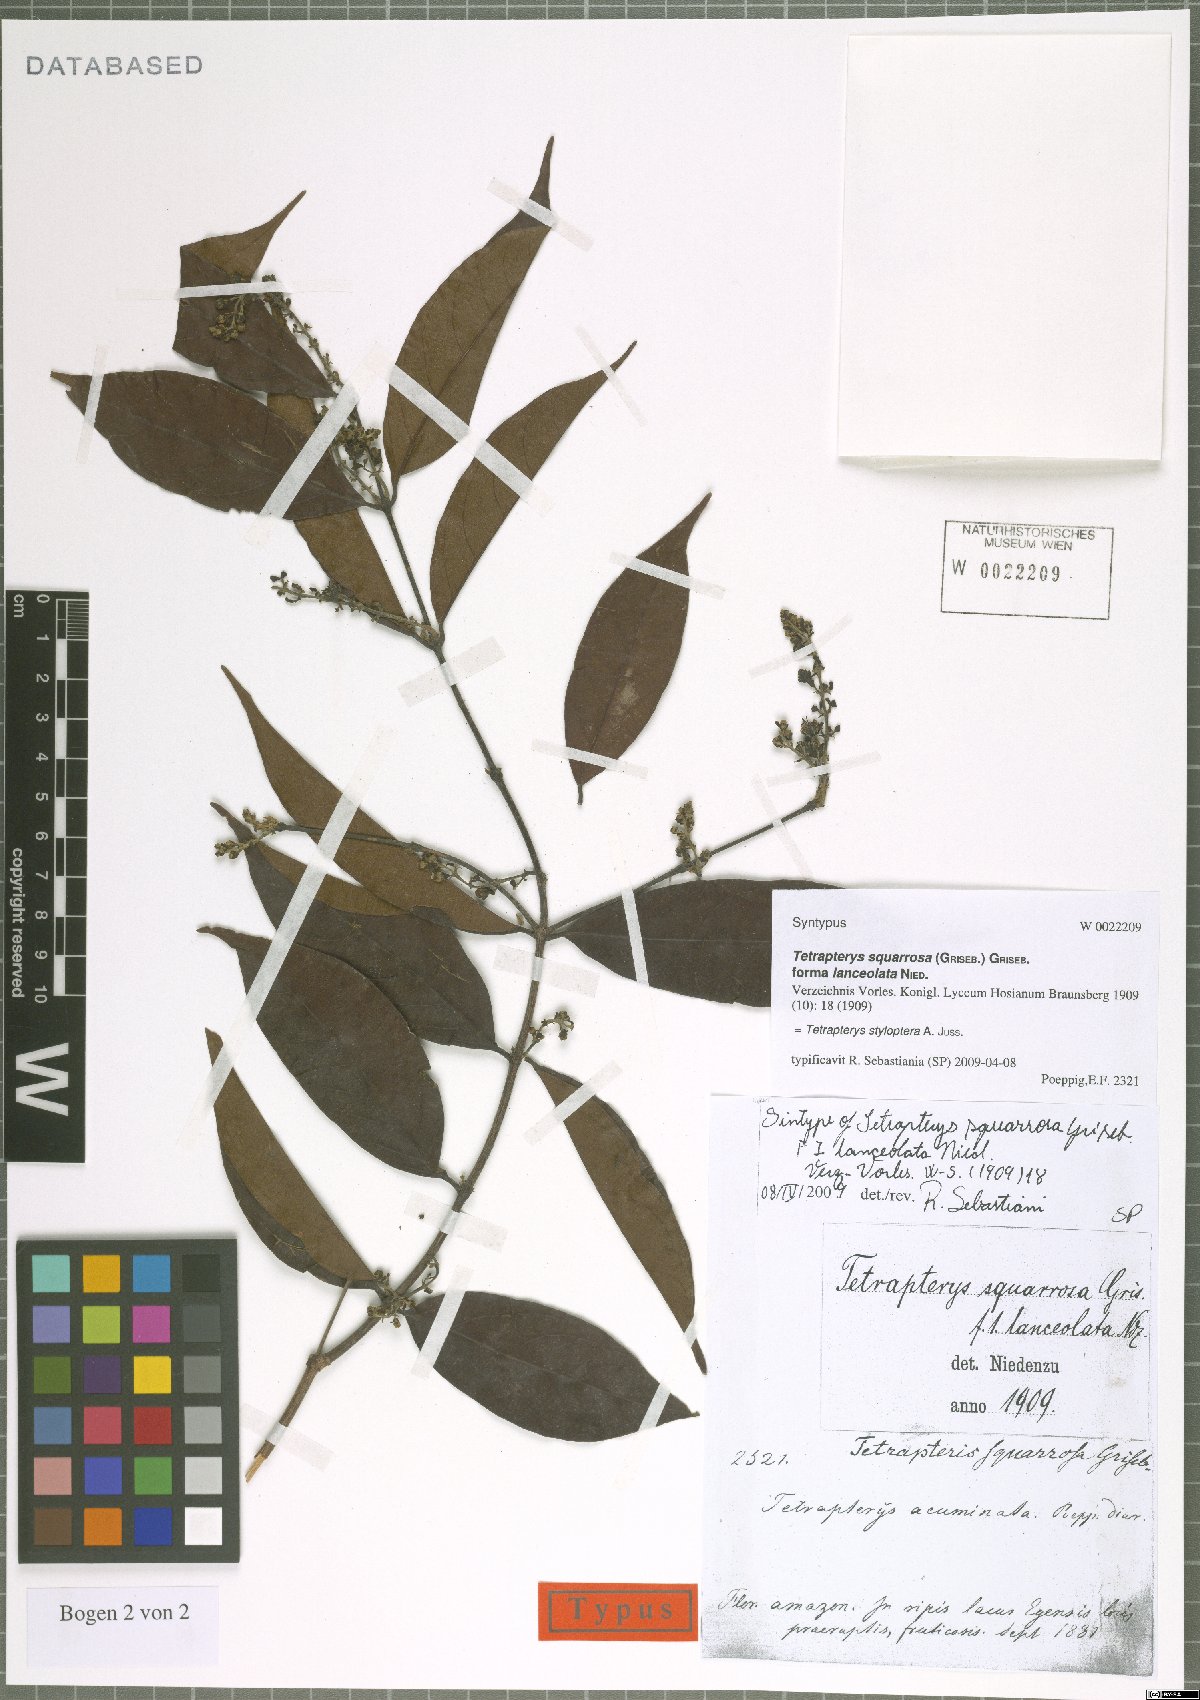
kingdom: Plantae
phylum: Tracheophyta
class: Magnoliopsida
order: Malpighiales
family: Malpighiaceae
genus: Glicophyllum
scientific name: Glicophyllum stylopterum
